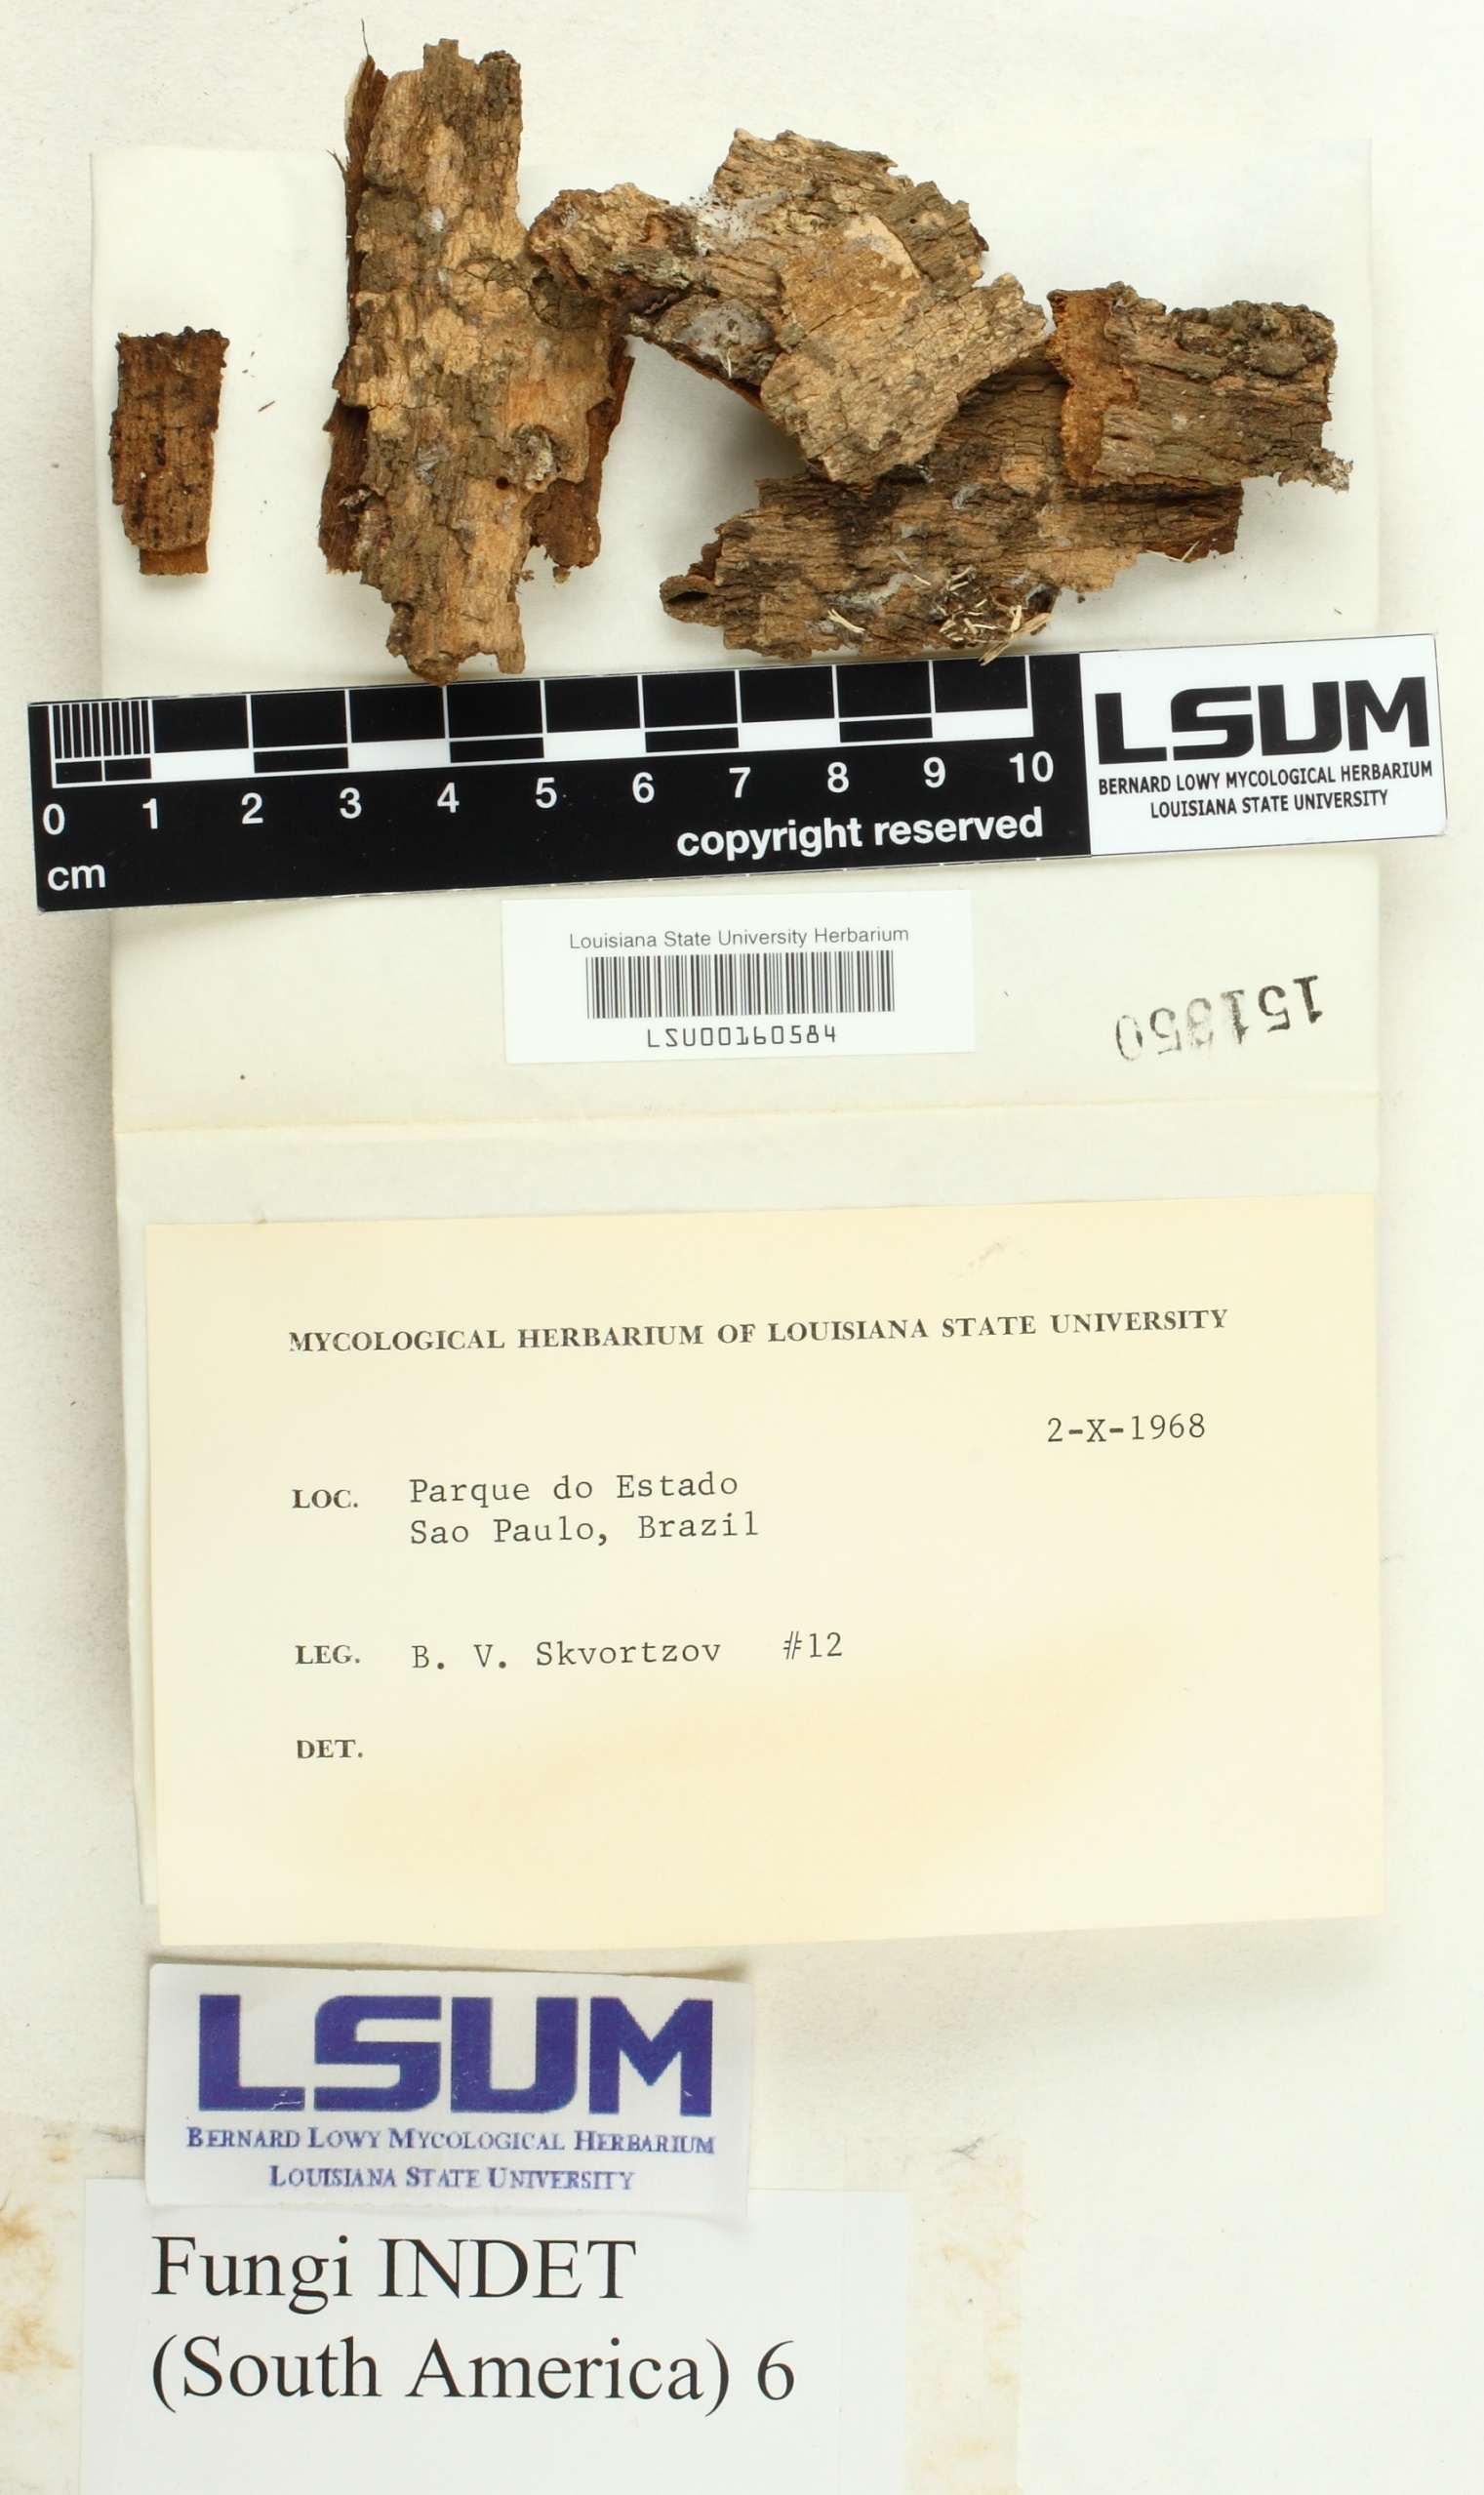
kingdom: Fungi
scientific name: Fungi
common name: Fungi
